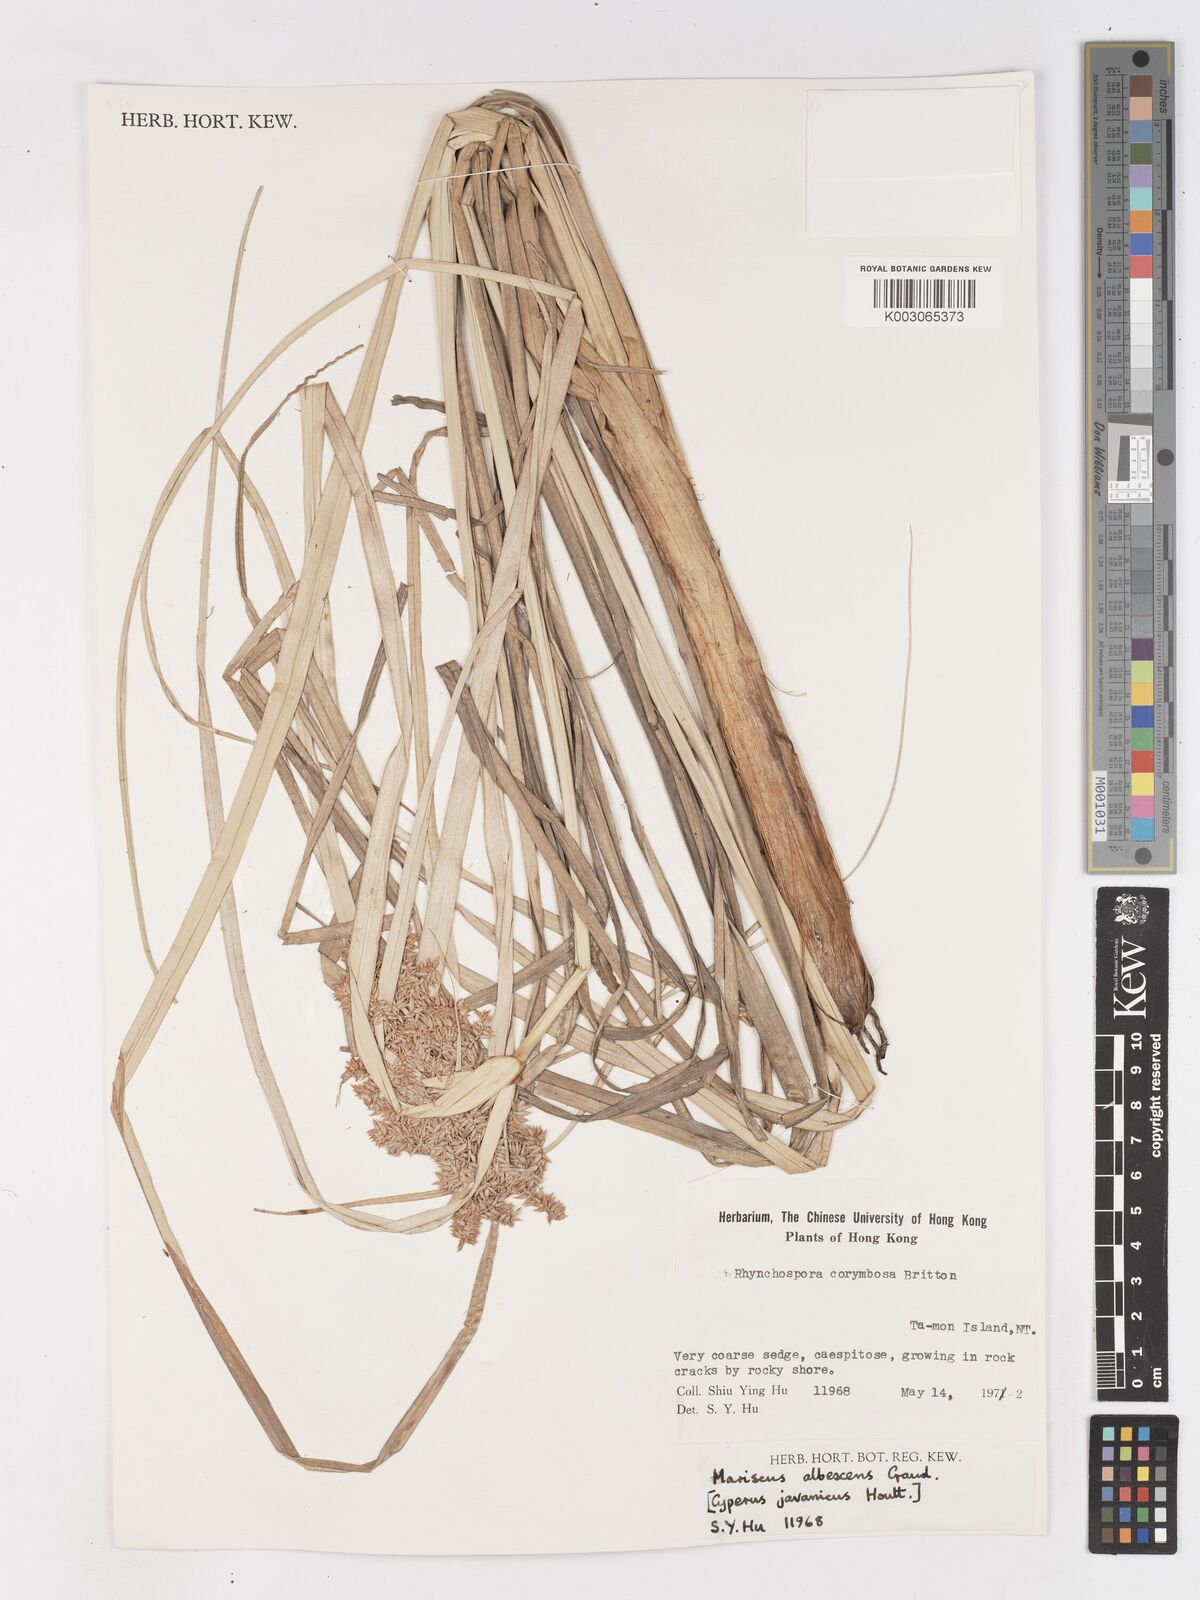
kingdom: Plantae
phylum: Tracheophyta
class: Liliopsida
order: Poales
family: Cyperaceae
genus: Cyperus
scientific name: Cyperus javanicus
